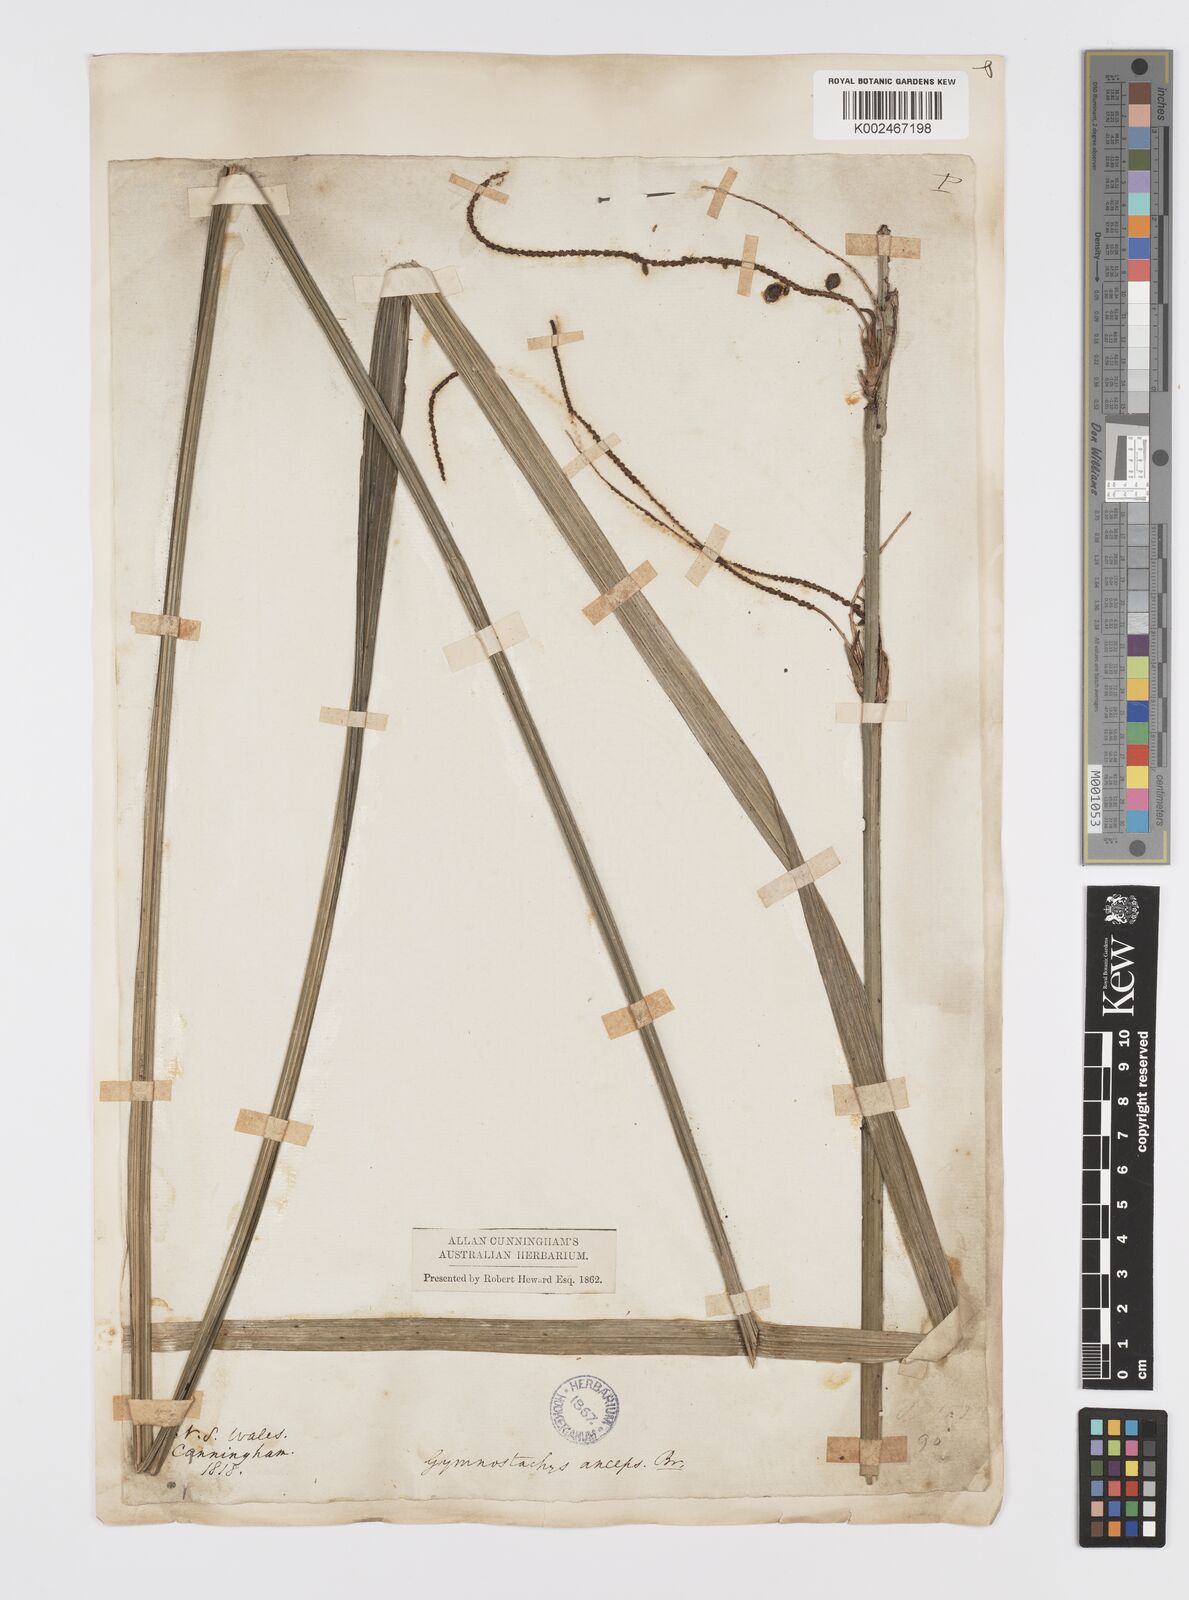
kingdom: Plantae
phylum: Tracheophyta
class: Liliopsida
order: Alismatales
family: Araceae
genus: Gymnostachys
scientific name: Gymnostachys anceps
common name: Settler's-flax
